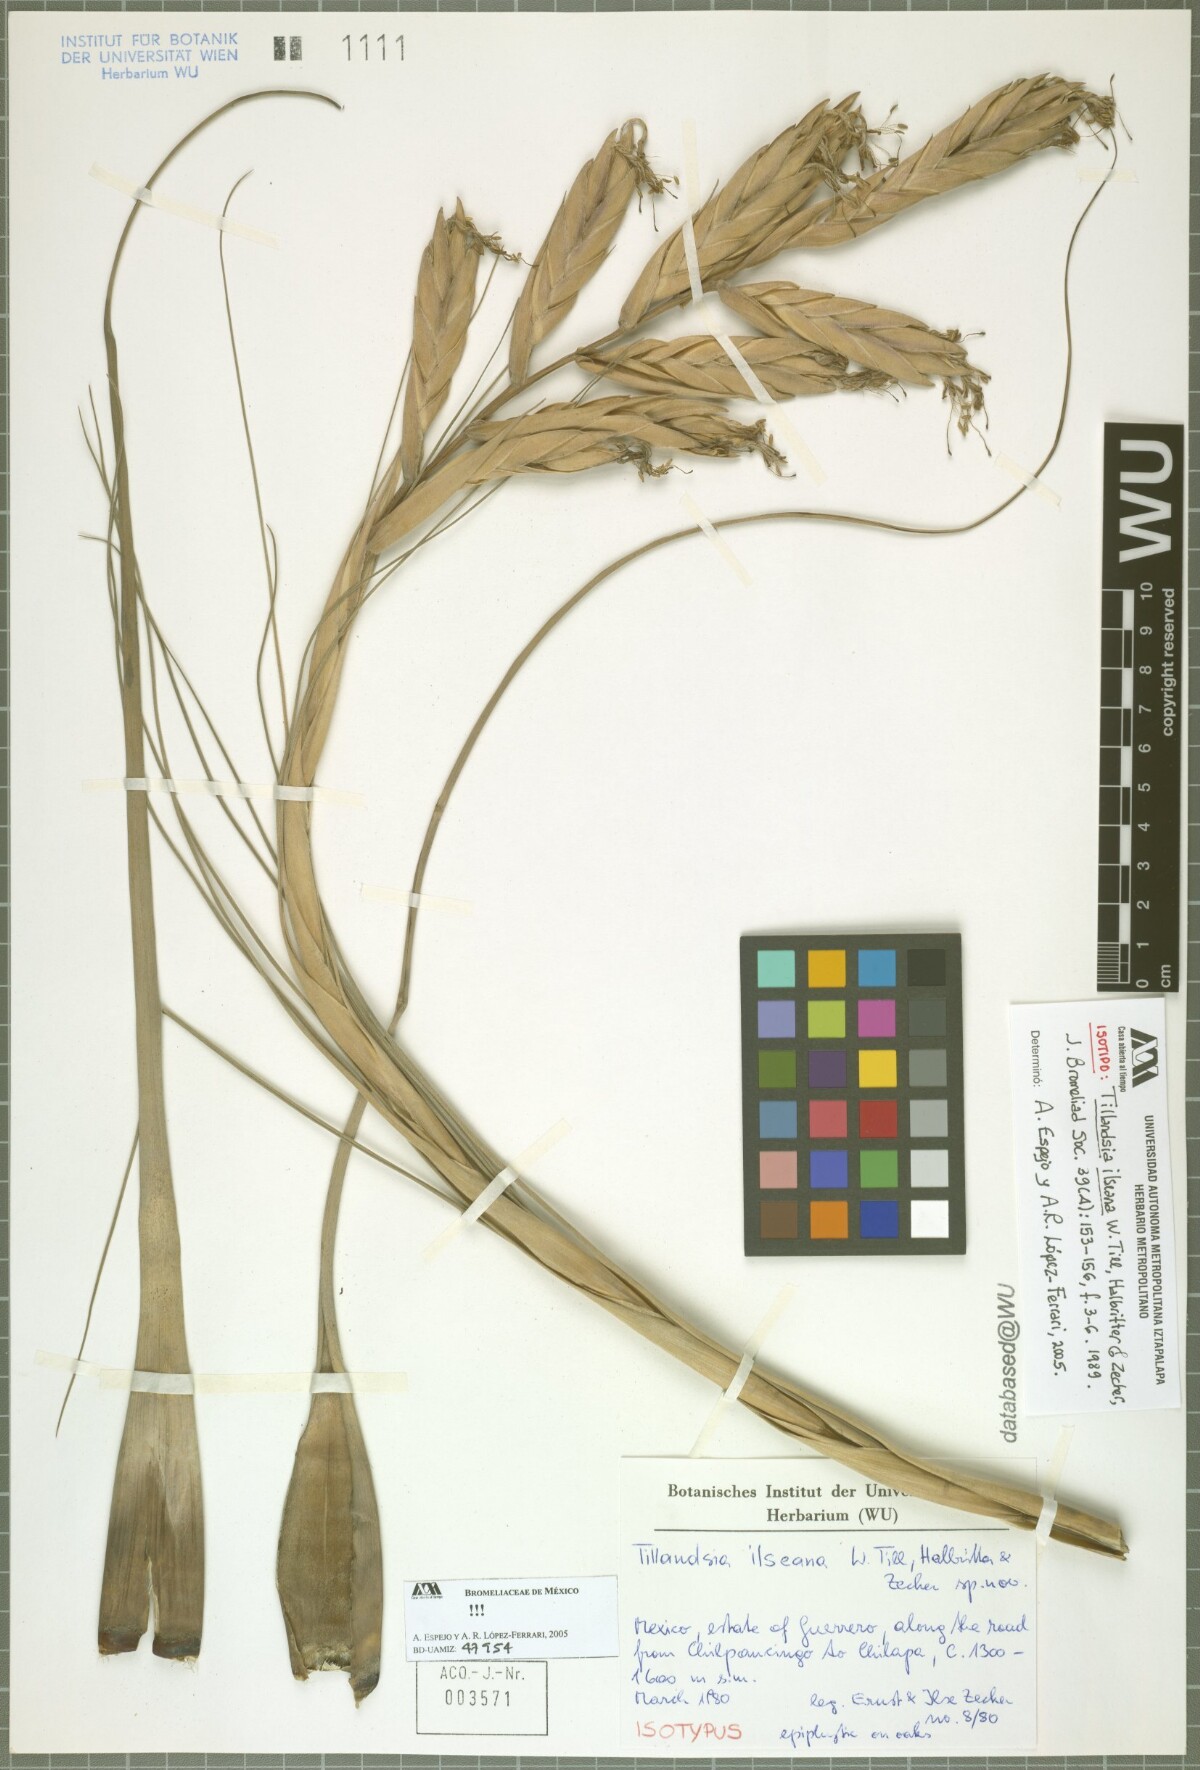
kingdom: Plantae
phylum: Tracheophyta
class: Liliopsida
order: Poales
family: Bromeliaceae
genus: Tillandsia
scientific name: Tillandsia ilseana
